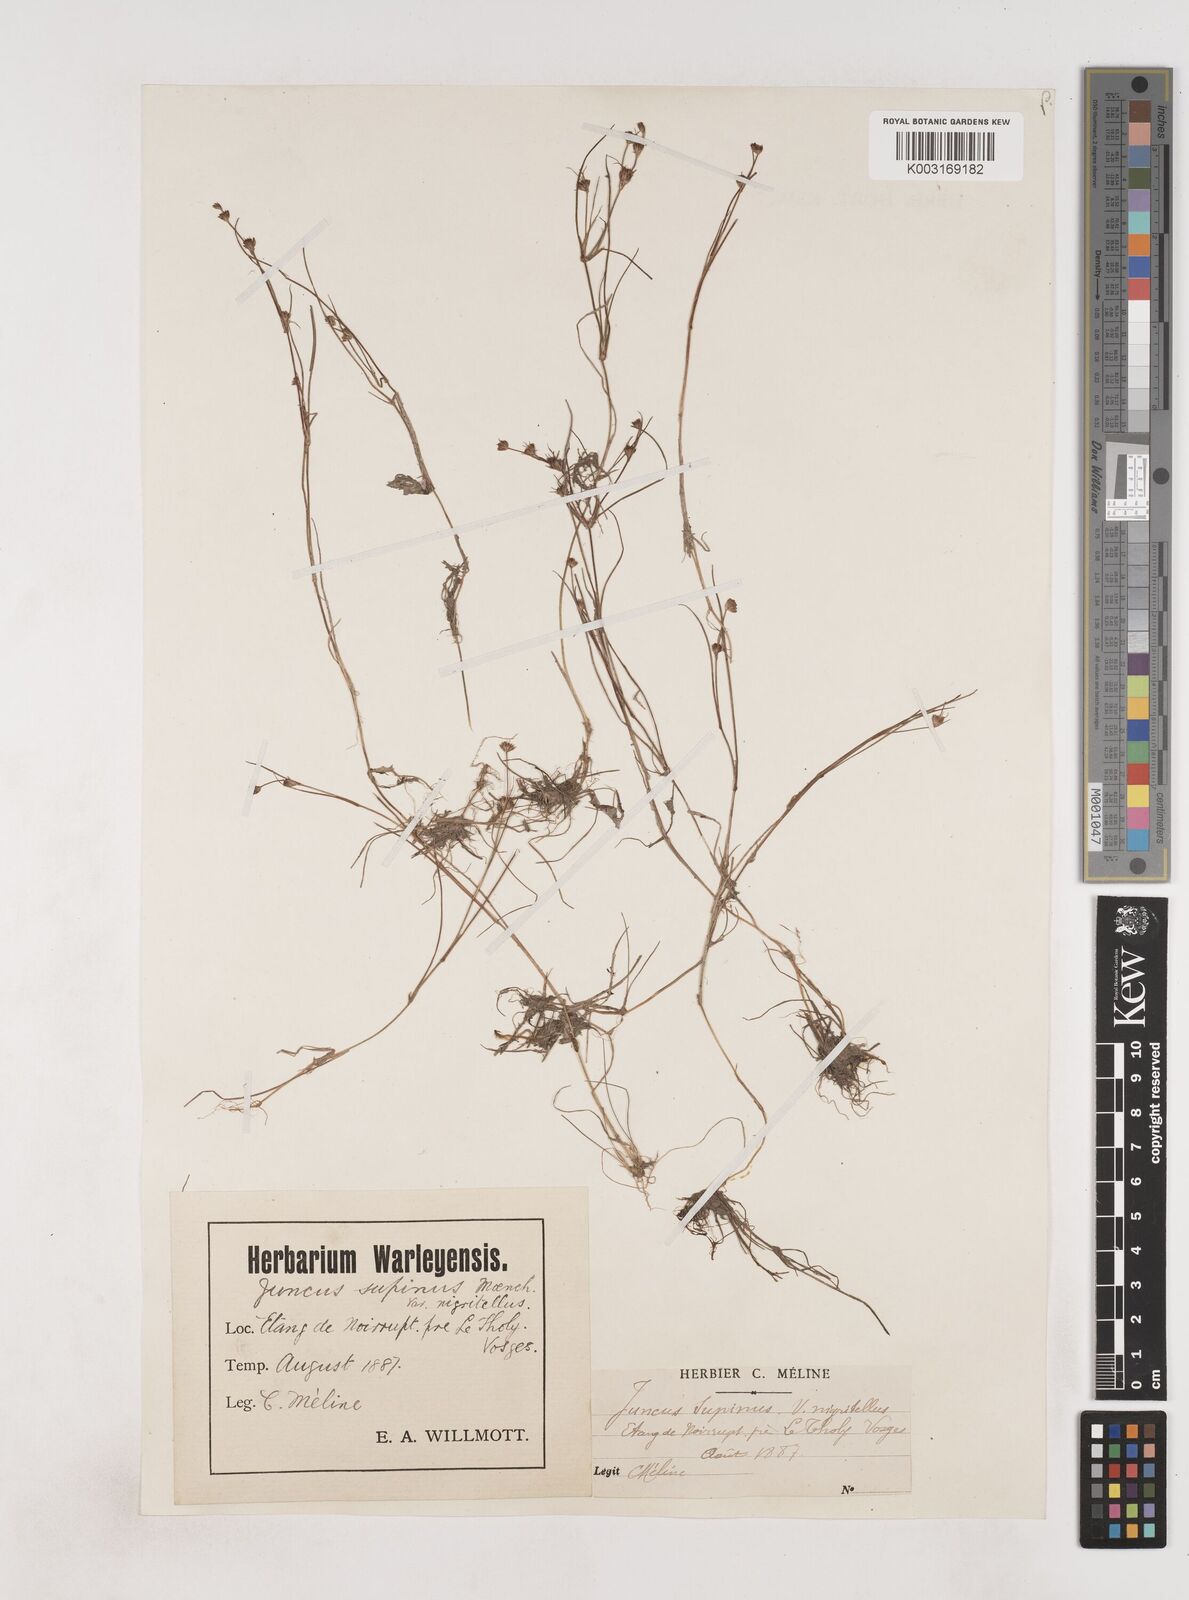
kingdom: Plantae
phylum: Tracheophyta
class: Liliopsida
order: Poales
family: Juncaceae
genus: Juncus
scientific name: Juncus bulbosus
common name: Bulbous rush
